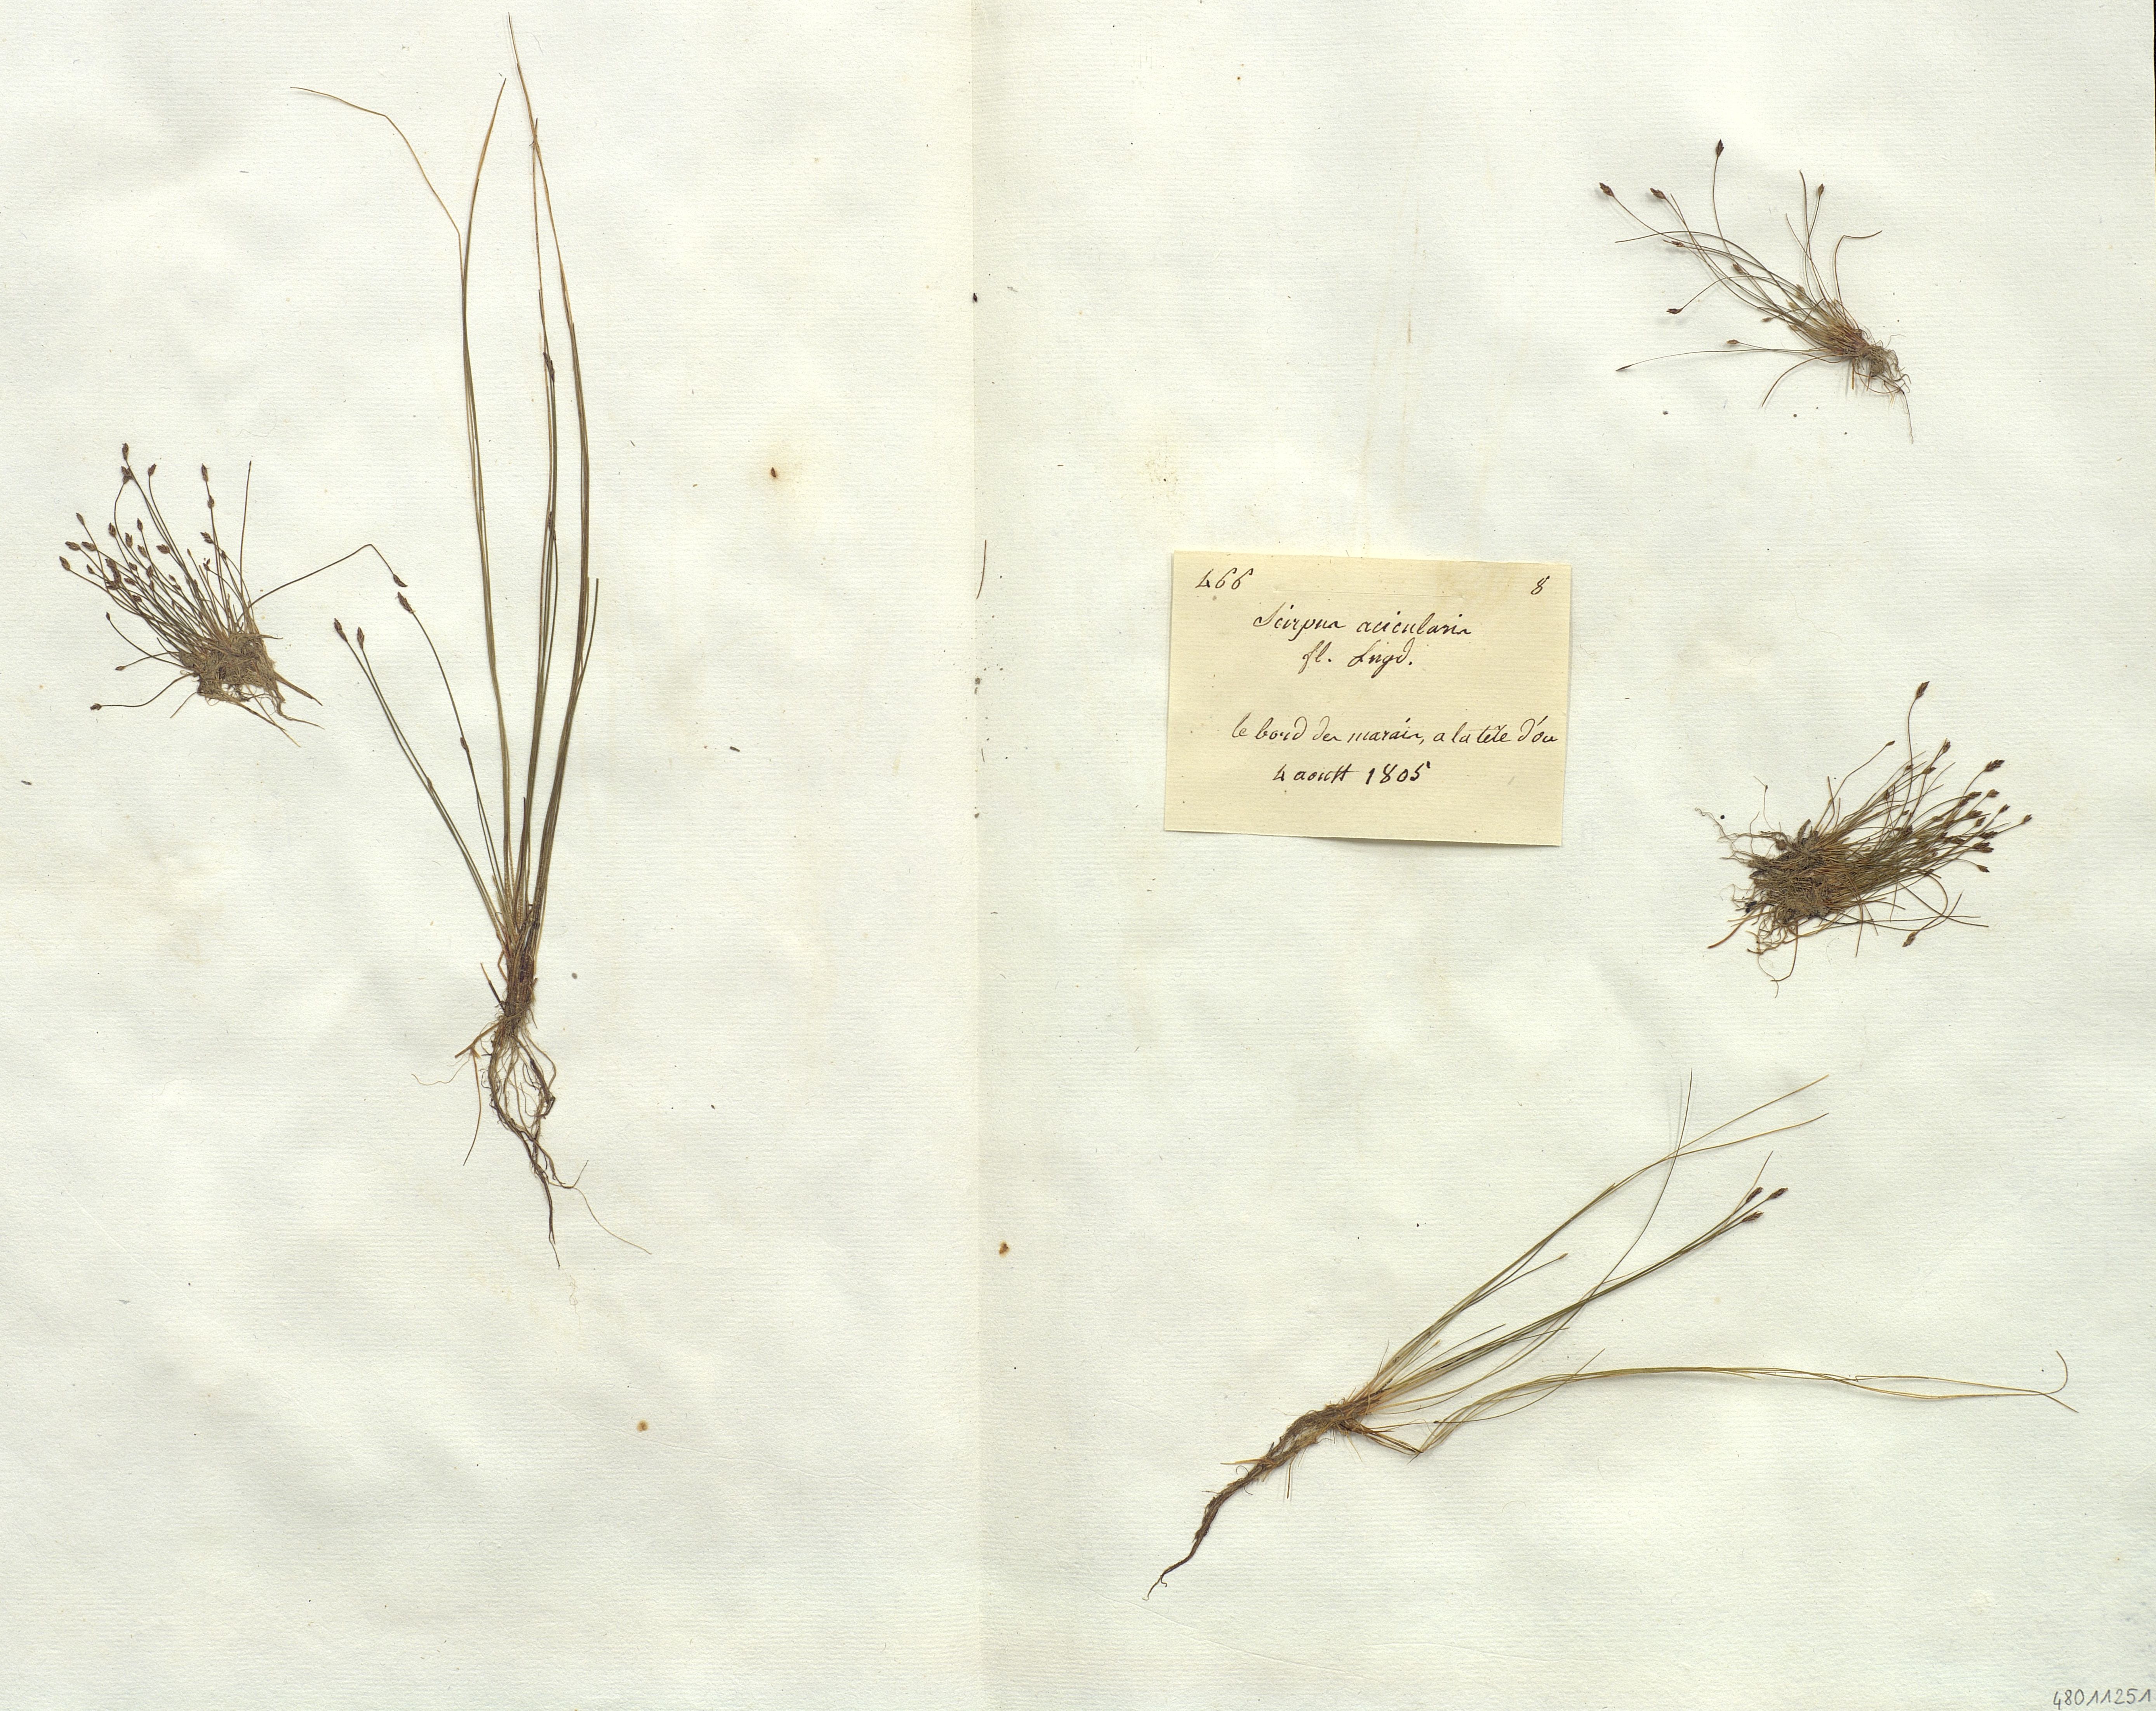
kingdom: Plantae
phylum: Tracheophyta
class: Liliopsida
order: Poales
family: Cyperaceae
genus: Scirpus
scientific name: Scirpus acicularis
